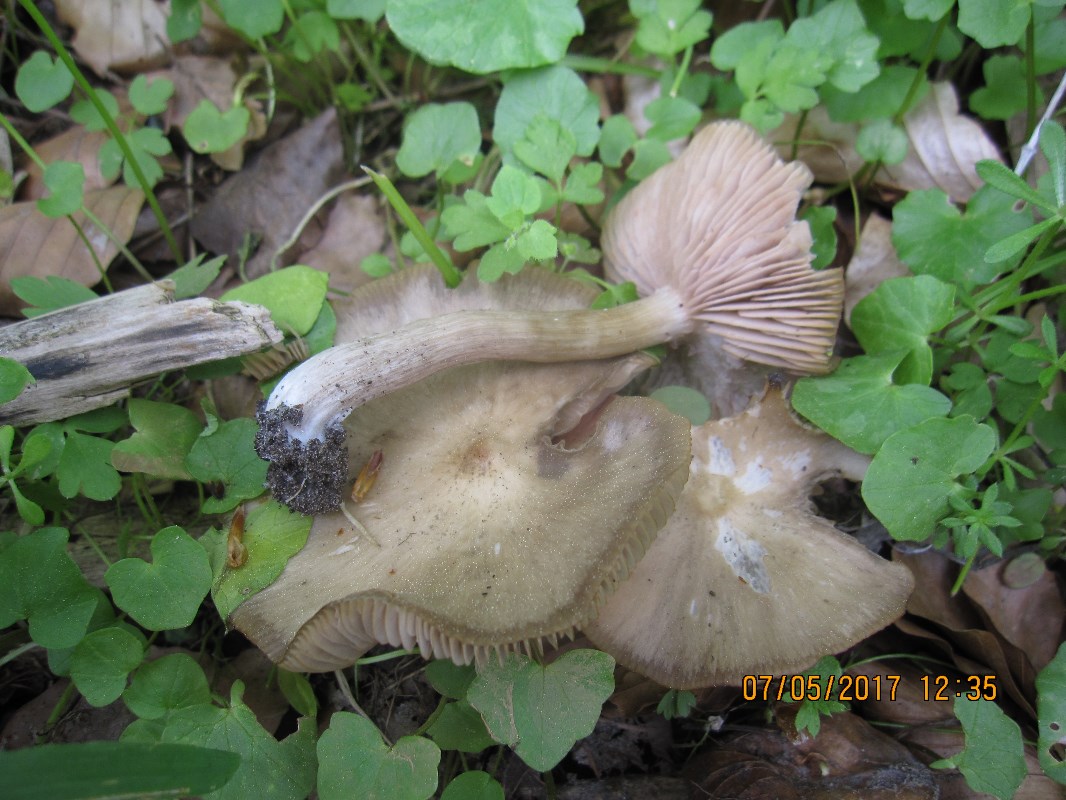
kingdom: Fungi
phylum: Basidiomycota
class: Agaricomycetes
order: Agaricales
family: Entolomataceae
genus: Entoloma
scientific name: Entoloma aprile
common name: maj-rødblad
